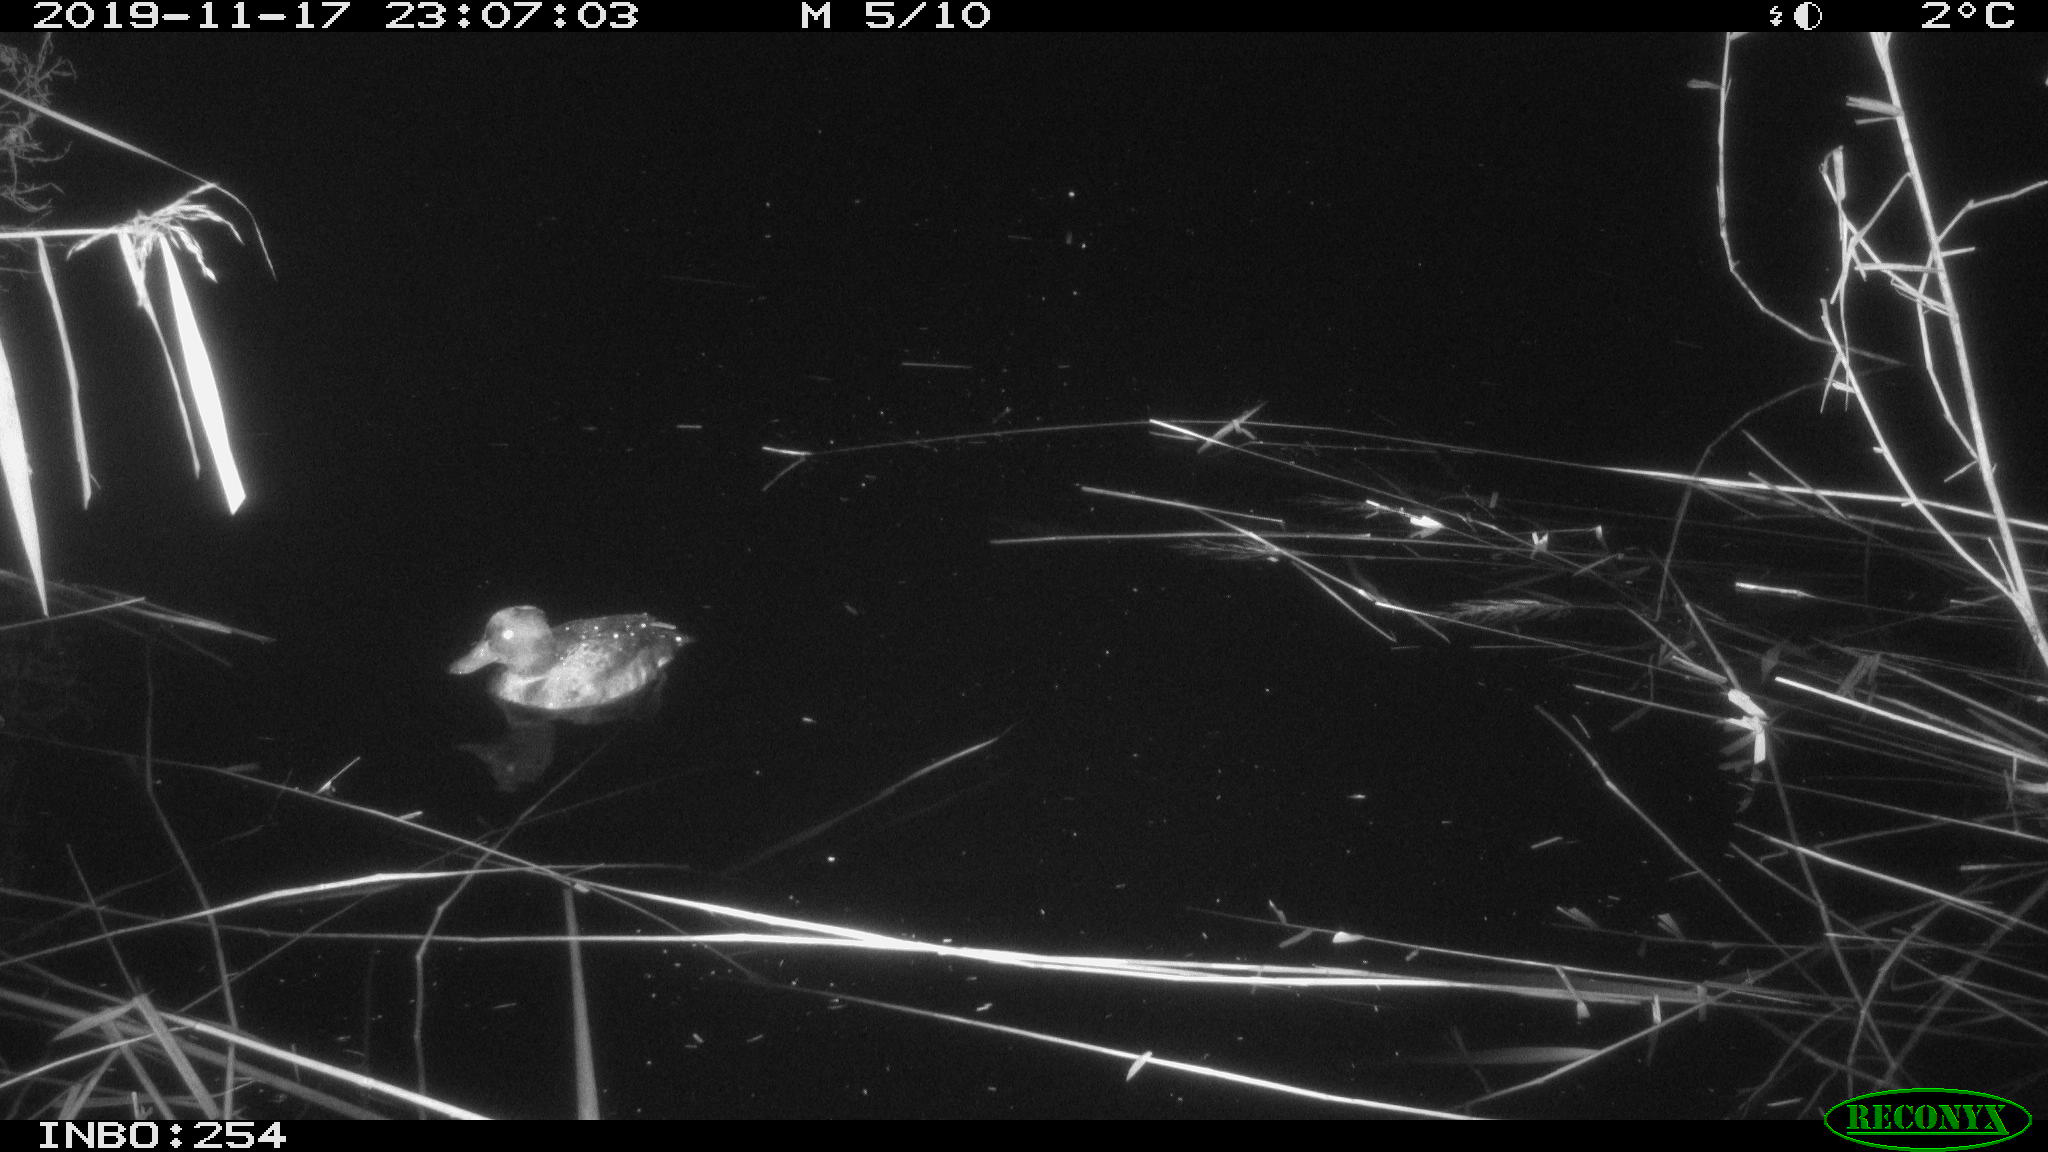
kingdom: Animalia
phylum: Chordata
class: Aves
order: Anseriformes
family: Anatidae
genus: Aythya
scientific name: Aythya fuligula
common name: Tufted duck
